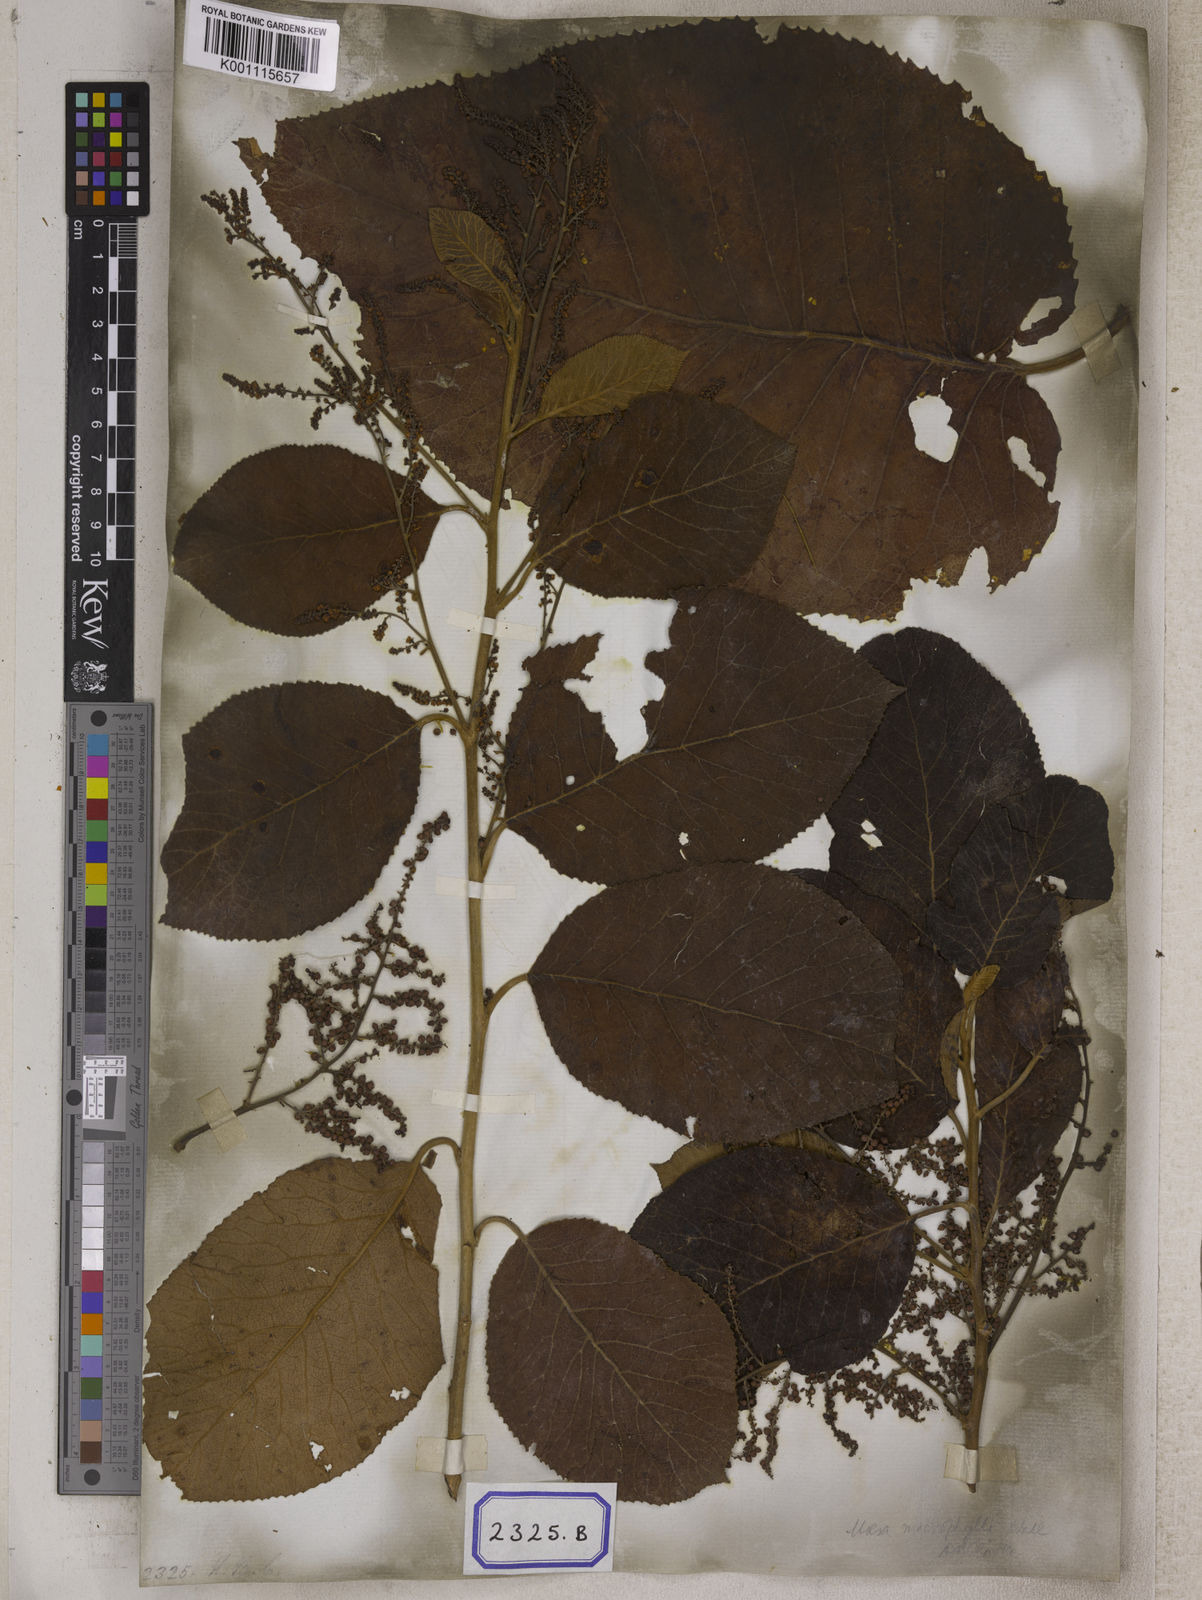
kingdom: Plantae
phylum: Tracheophyta
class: Magnoliopsida
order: Ericales
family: Primulaceae
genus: Maesa
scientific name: Maesa macrophylla
